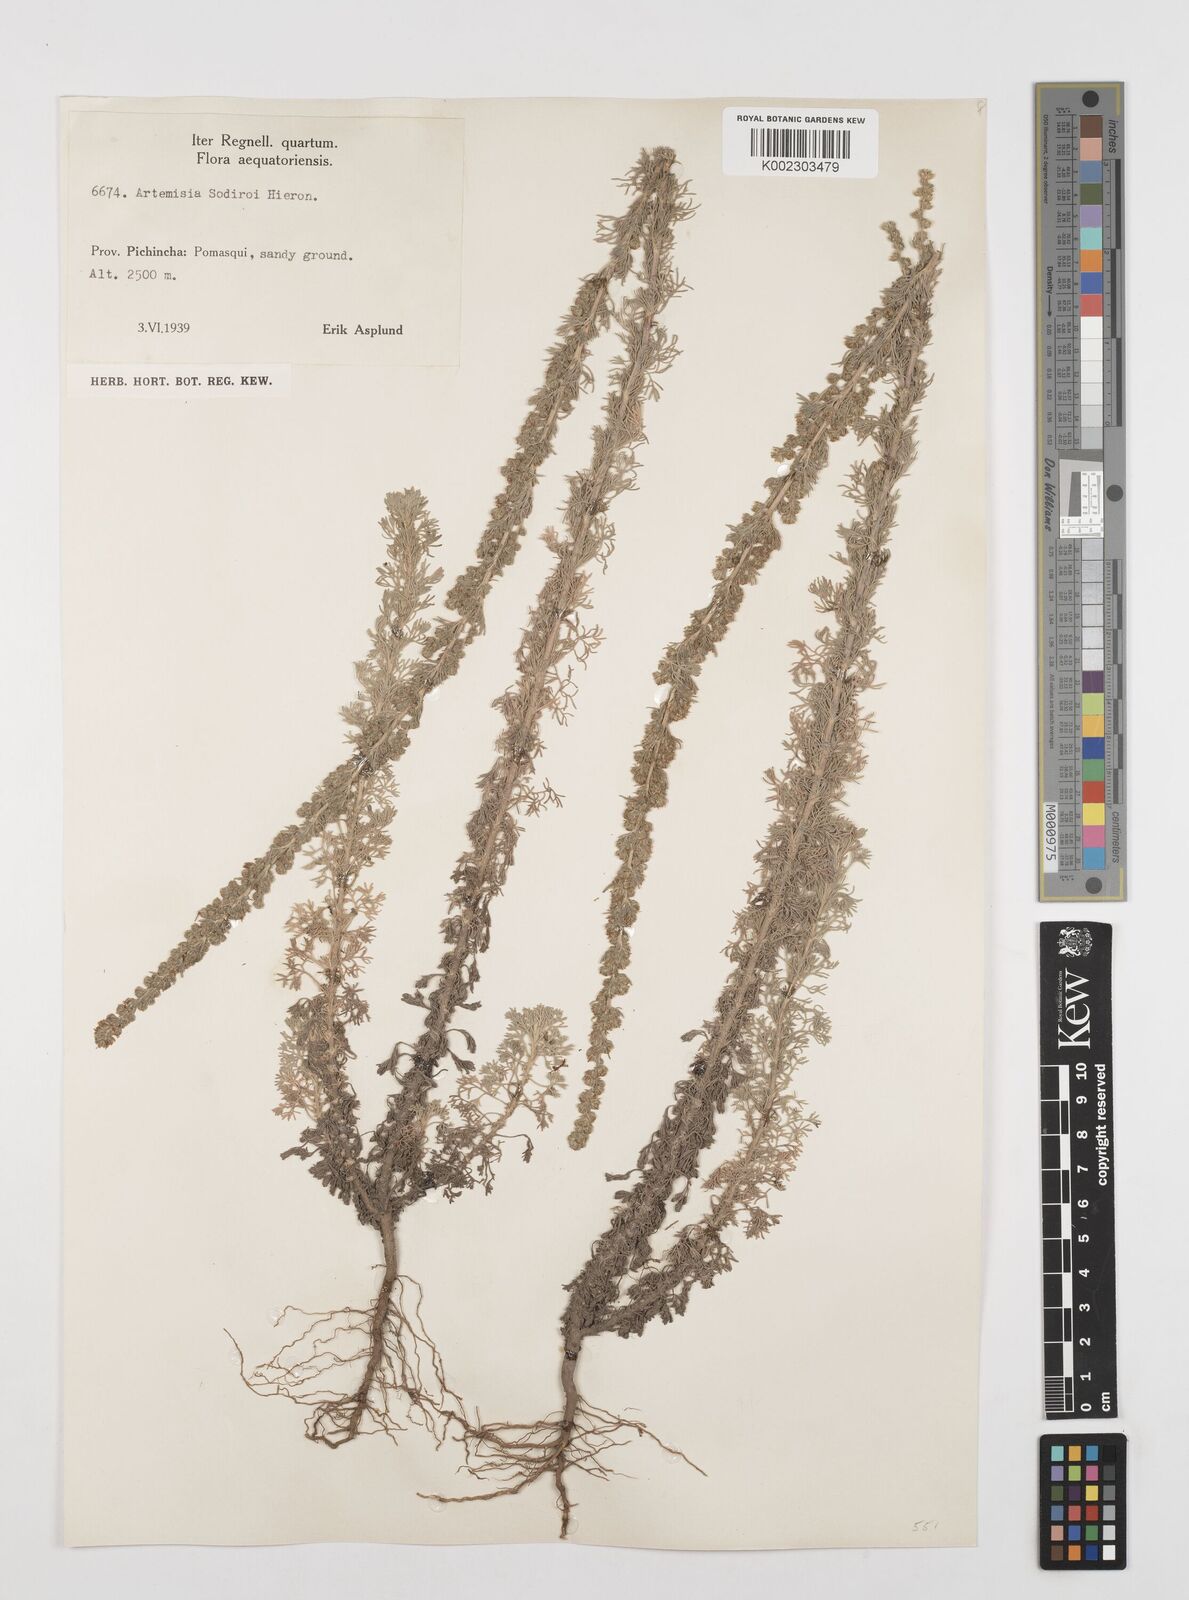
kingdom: Plantae
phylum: Tracheophyta
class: Magnoliopsida
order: Asterales
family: Asteraceae
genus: Artemisia
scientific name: Artemisia sodiroi
